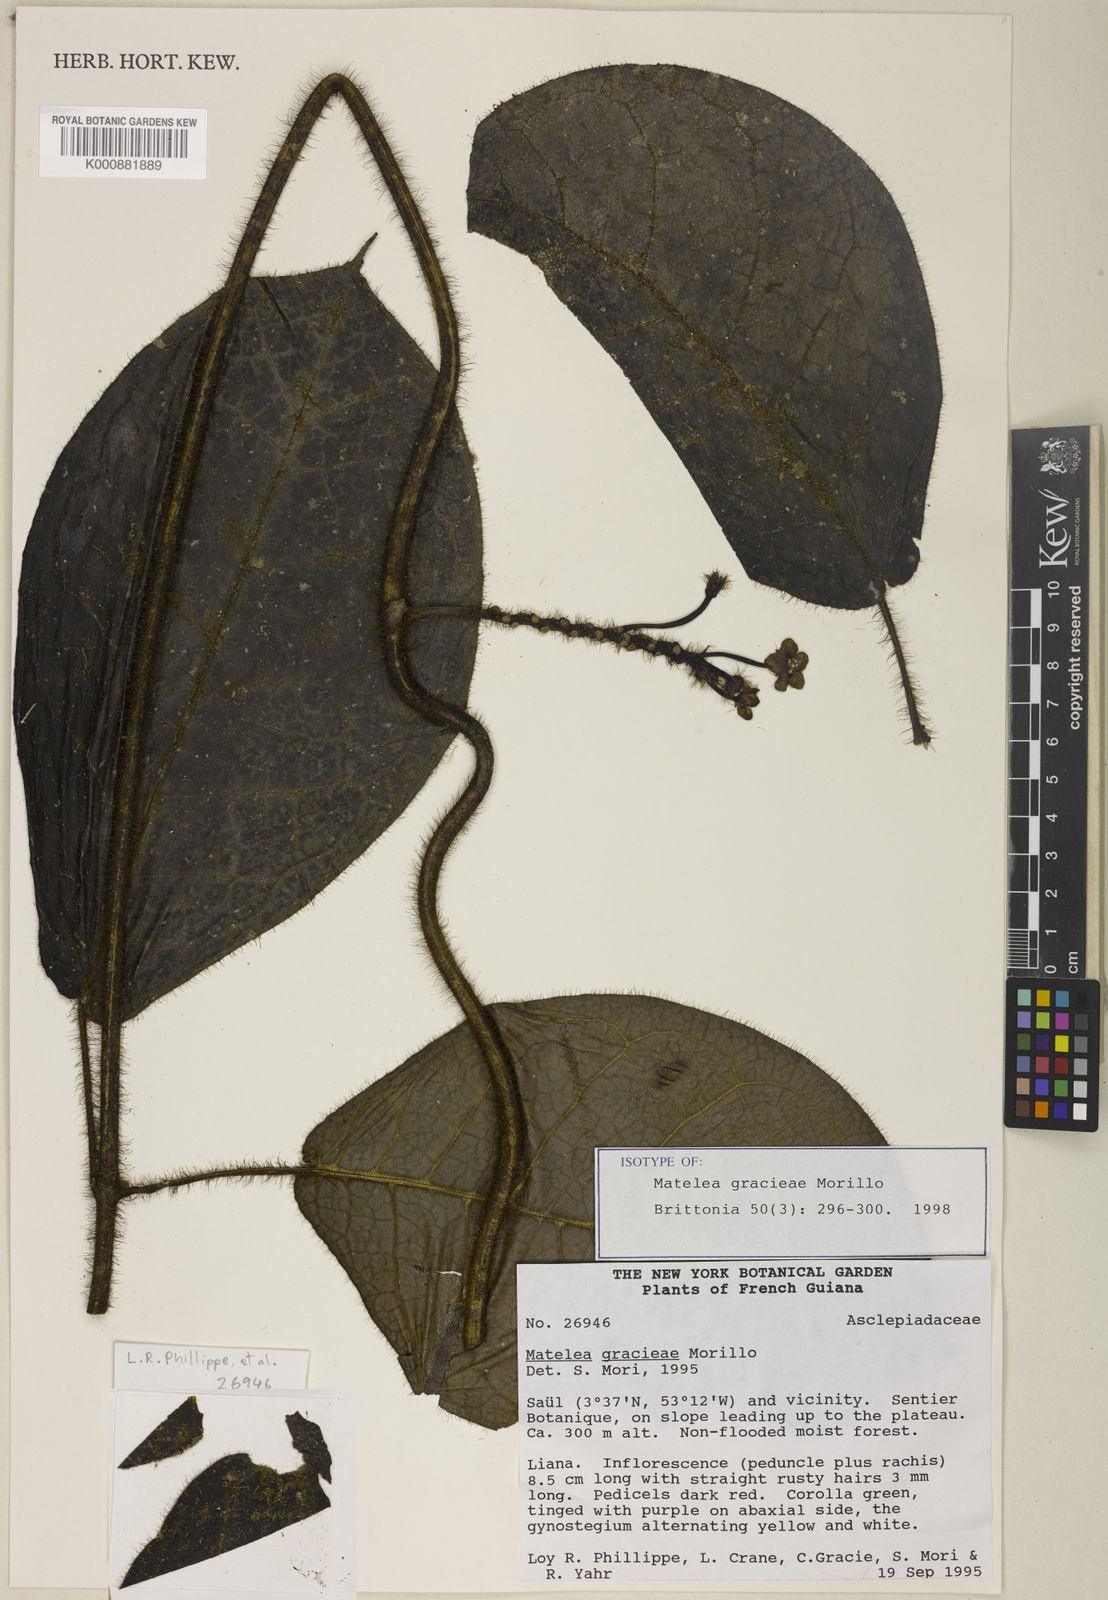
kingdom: Plantae
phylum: Tracheophyta
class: Magnoliopsida
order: Gentianales
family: Apocynaceae
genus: Graciemoriana
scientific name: Graciemoriana gracieae
